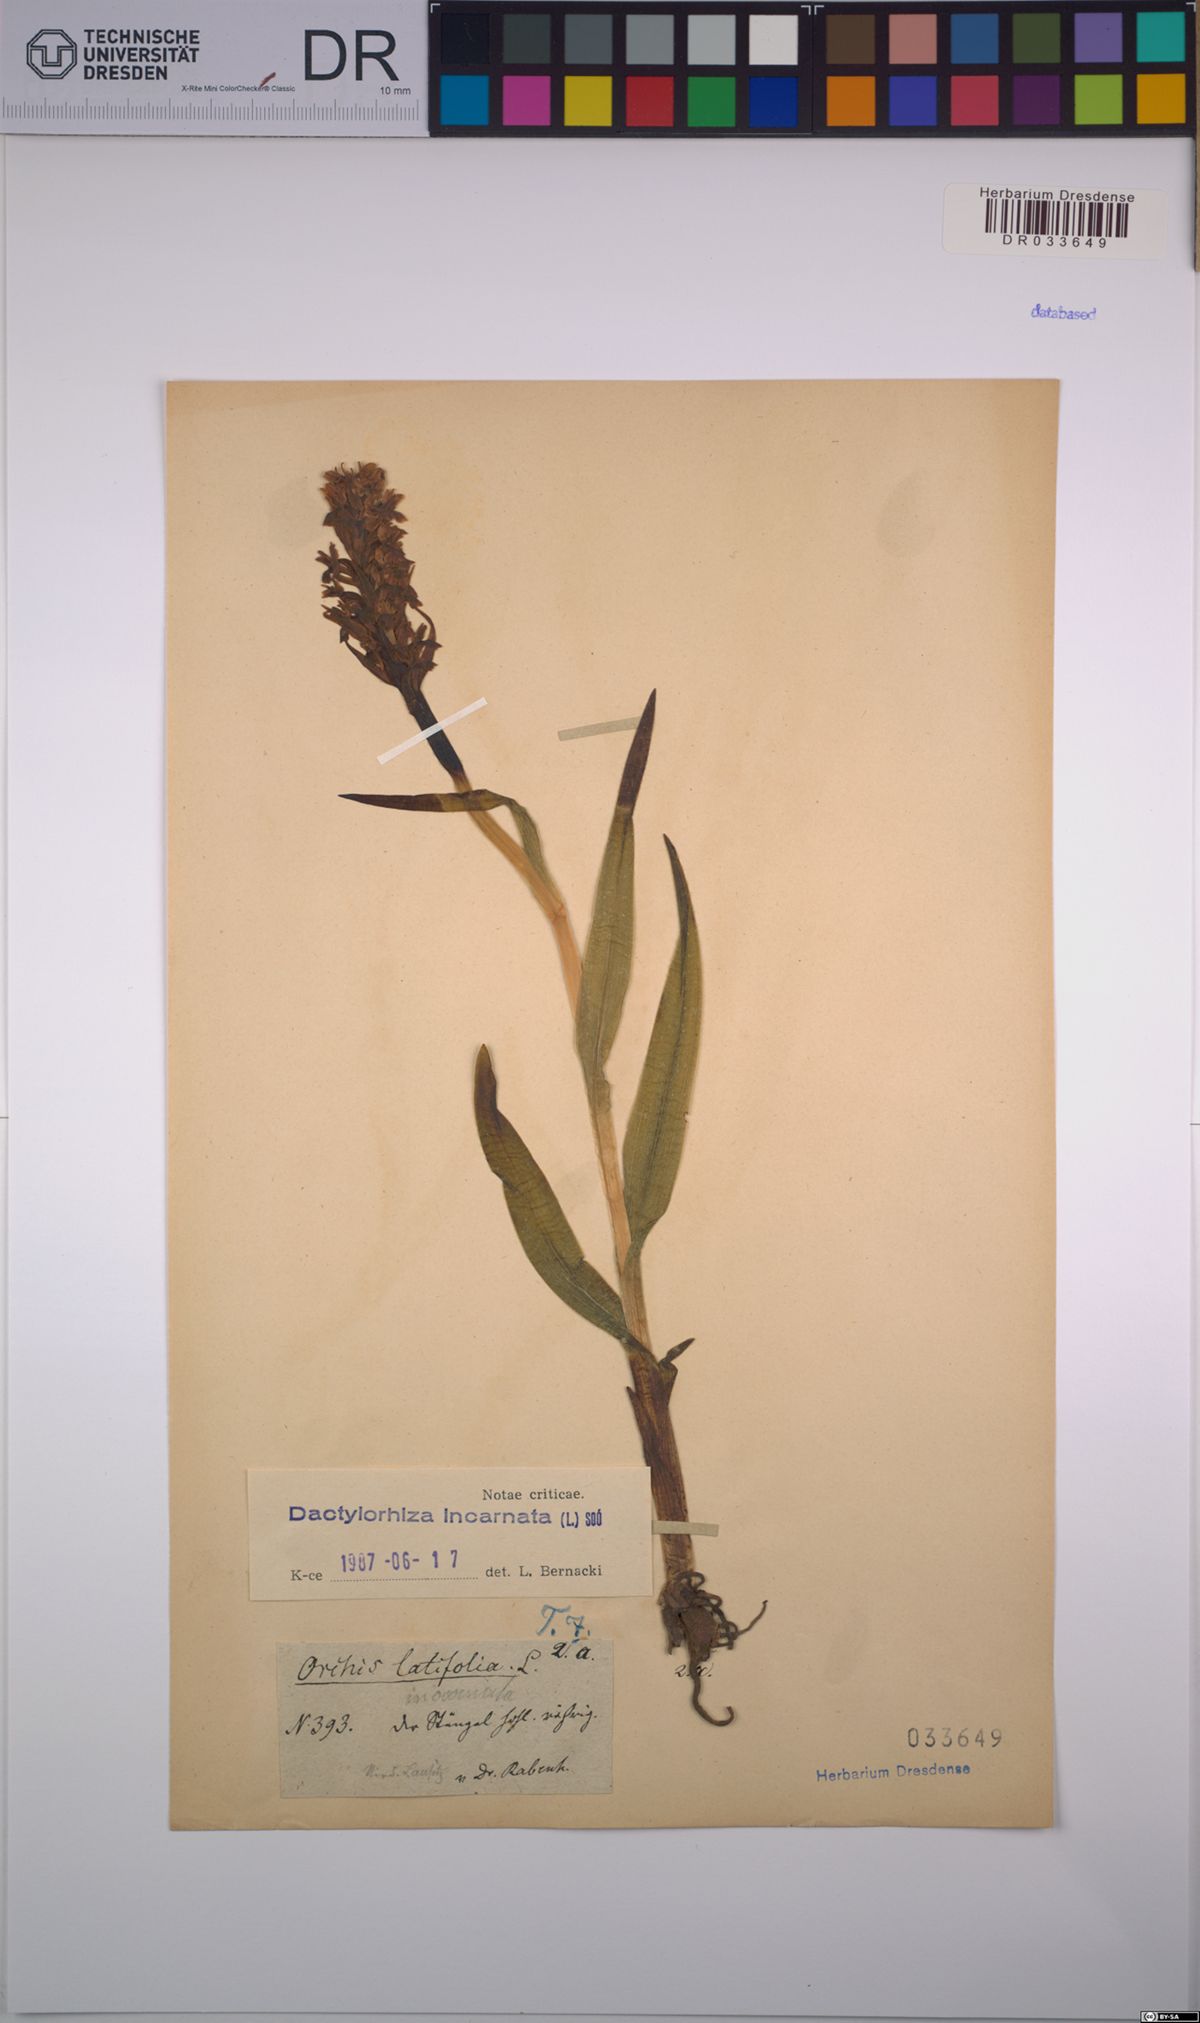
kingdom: Plantae
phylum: Tracheophyta
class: Liliopsida
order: Asparagales
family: Orchidaceae
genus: Dactylorhiza
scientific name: Dactylorhiza incarnata
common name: Early marsh-orchid
